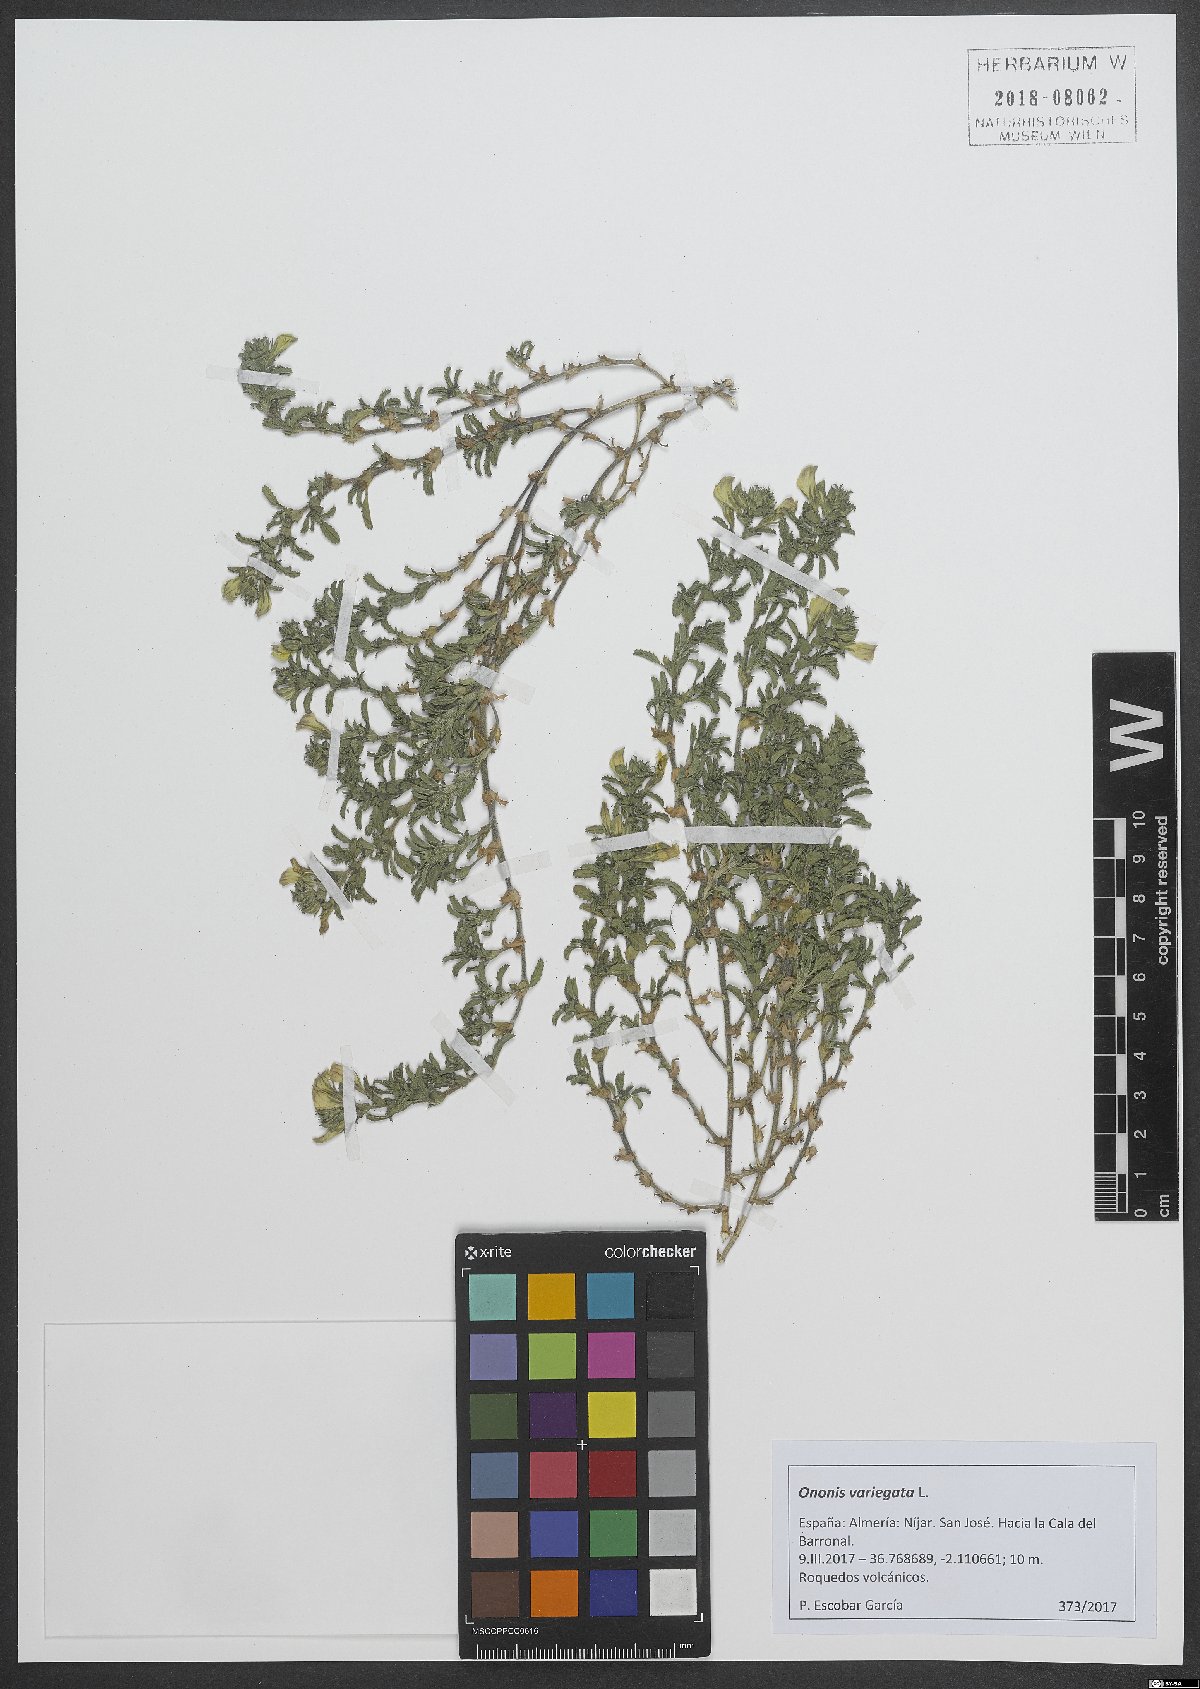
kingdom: Plantae
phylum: Tracheophyta
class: Magnoliopsida
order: Fabales
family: Fabaceae
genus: Ononis
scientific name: Ononis variegata
